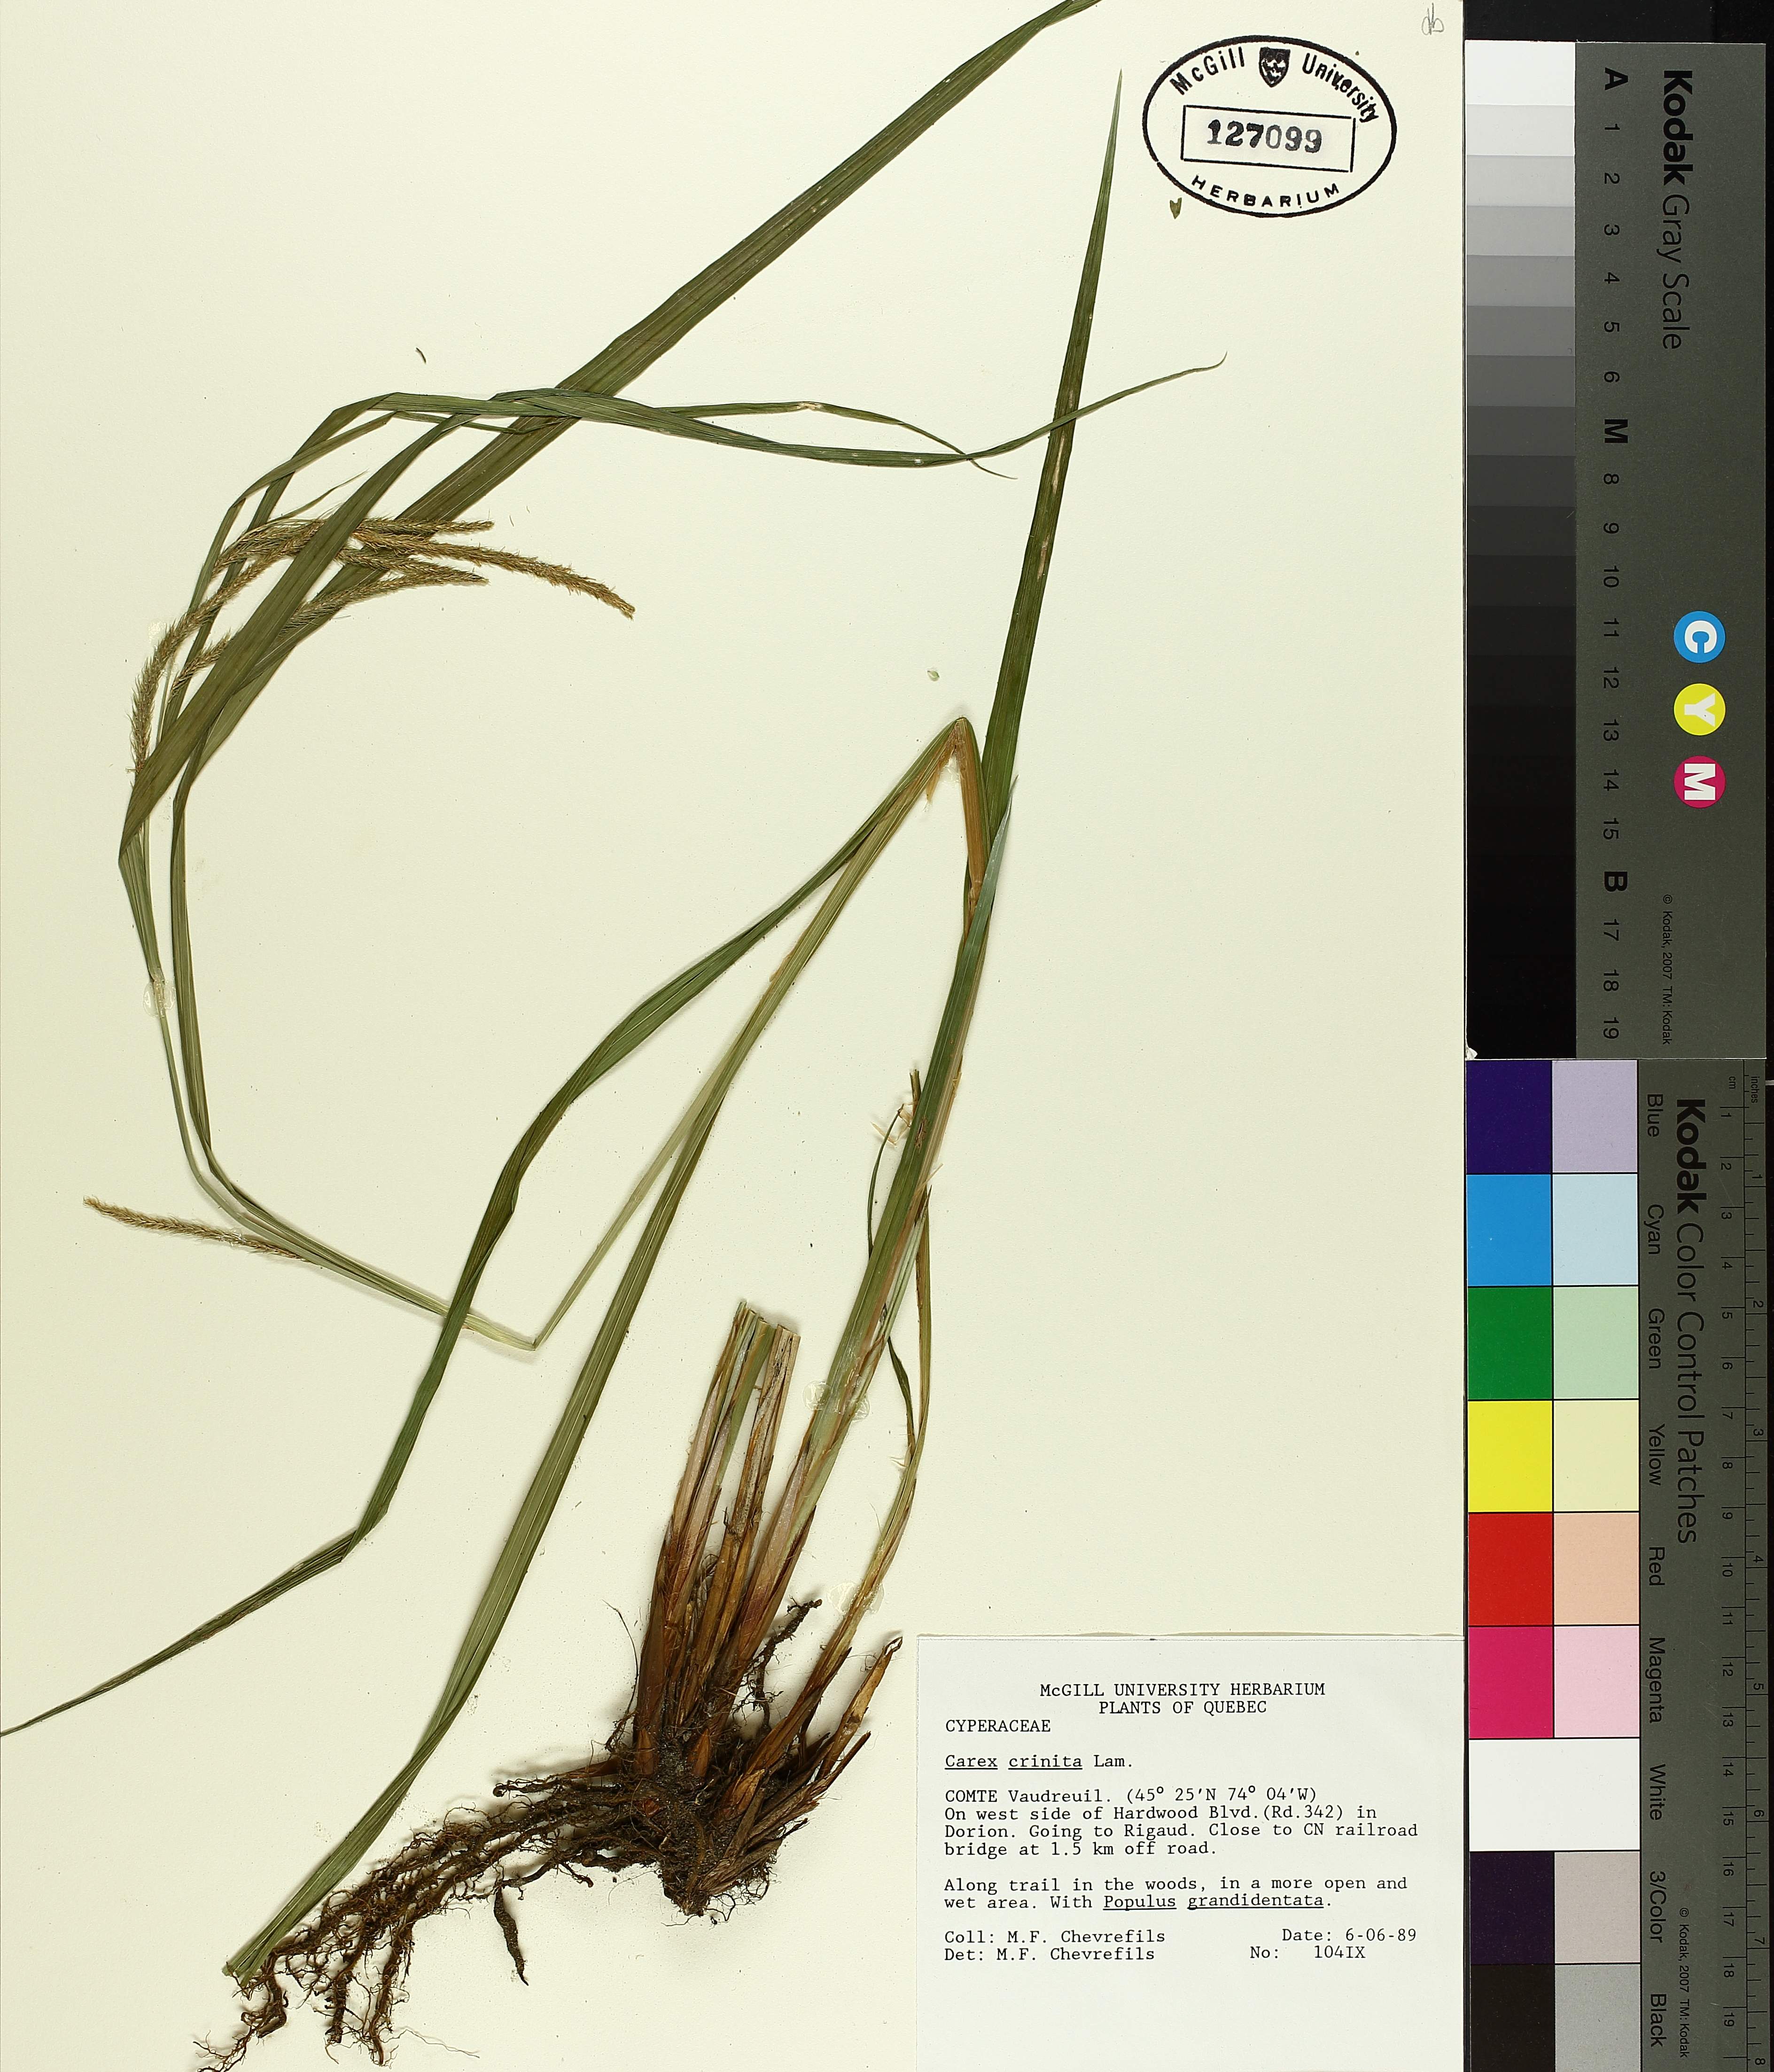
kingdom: Plantae
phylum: Tracheophyta
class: Liliopsida
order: Poales
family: Cyperaceae
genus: Carex
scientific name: Carex crinita
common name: Fringed sedge
